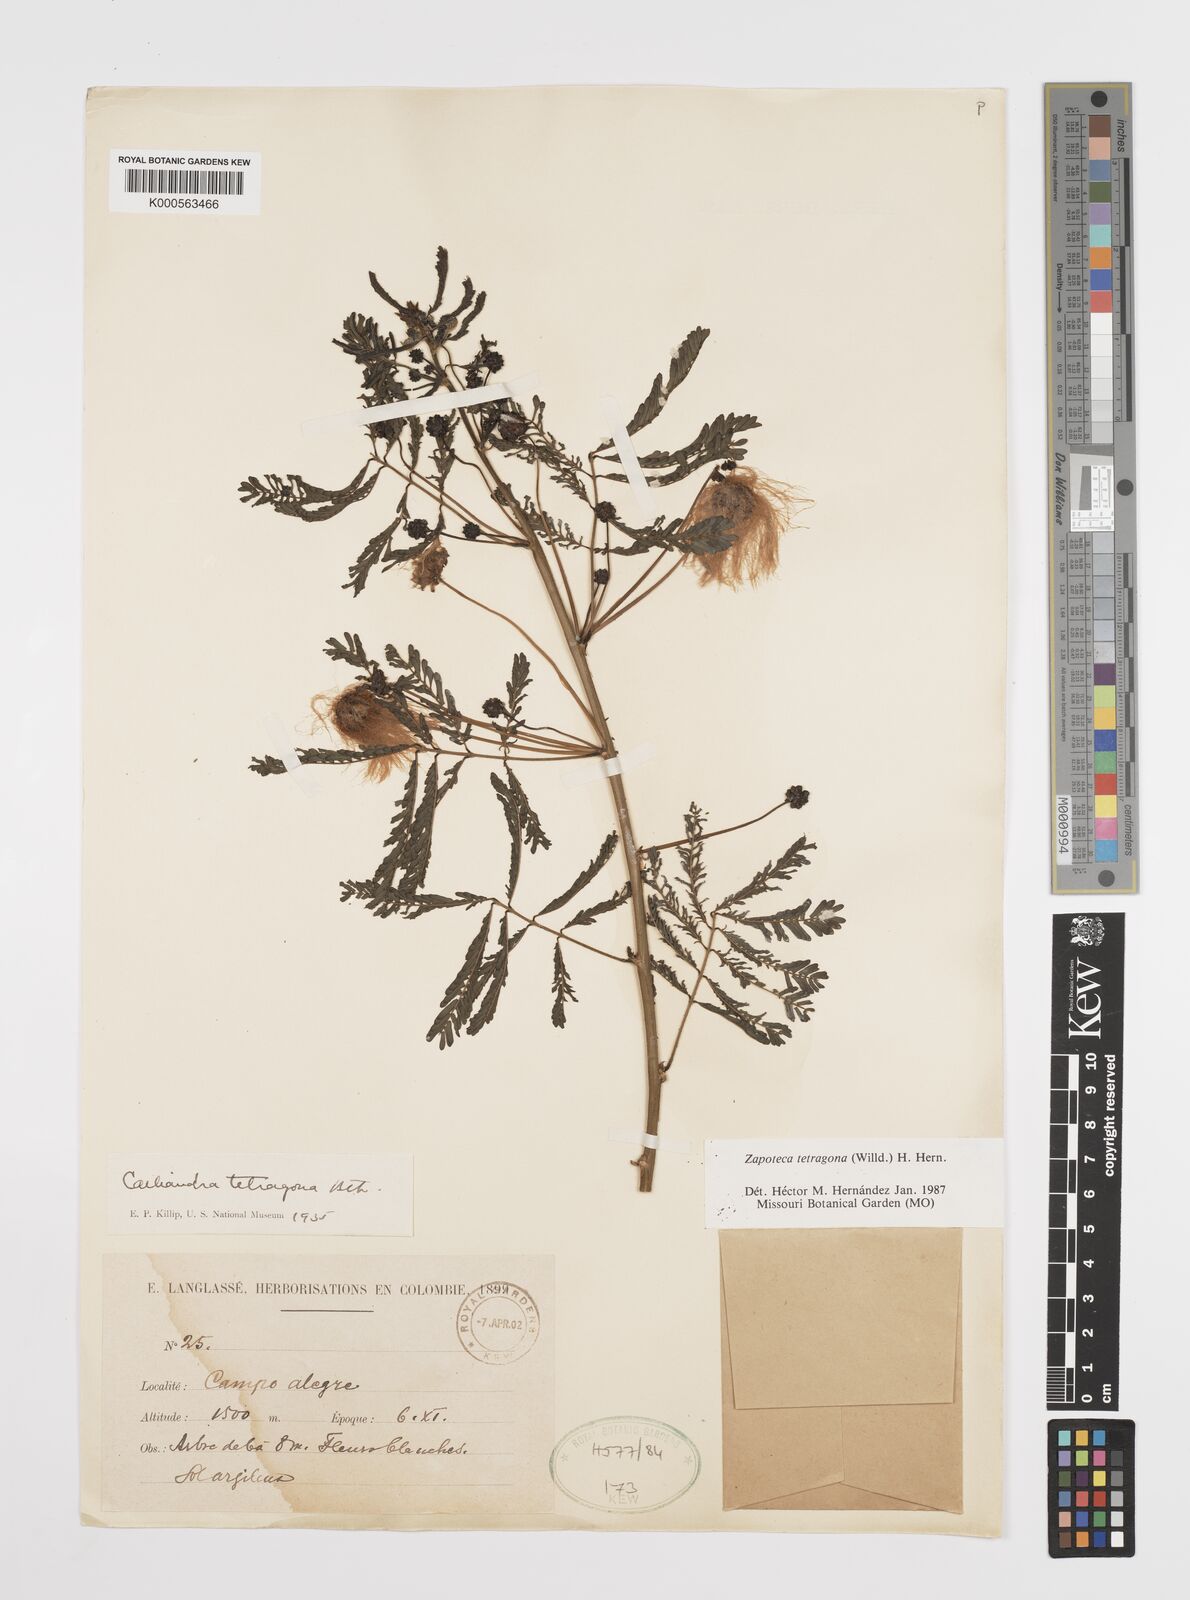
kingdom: Plantae
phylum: Tracheophyta
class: Magnoliopsida
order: Fabales
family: Fabaceae
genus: Zapoteca
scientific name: Zapoteca tetragona
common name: White calliandra
